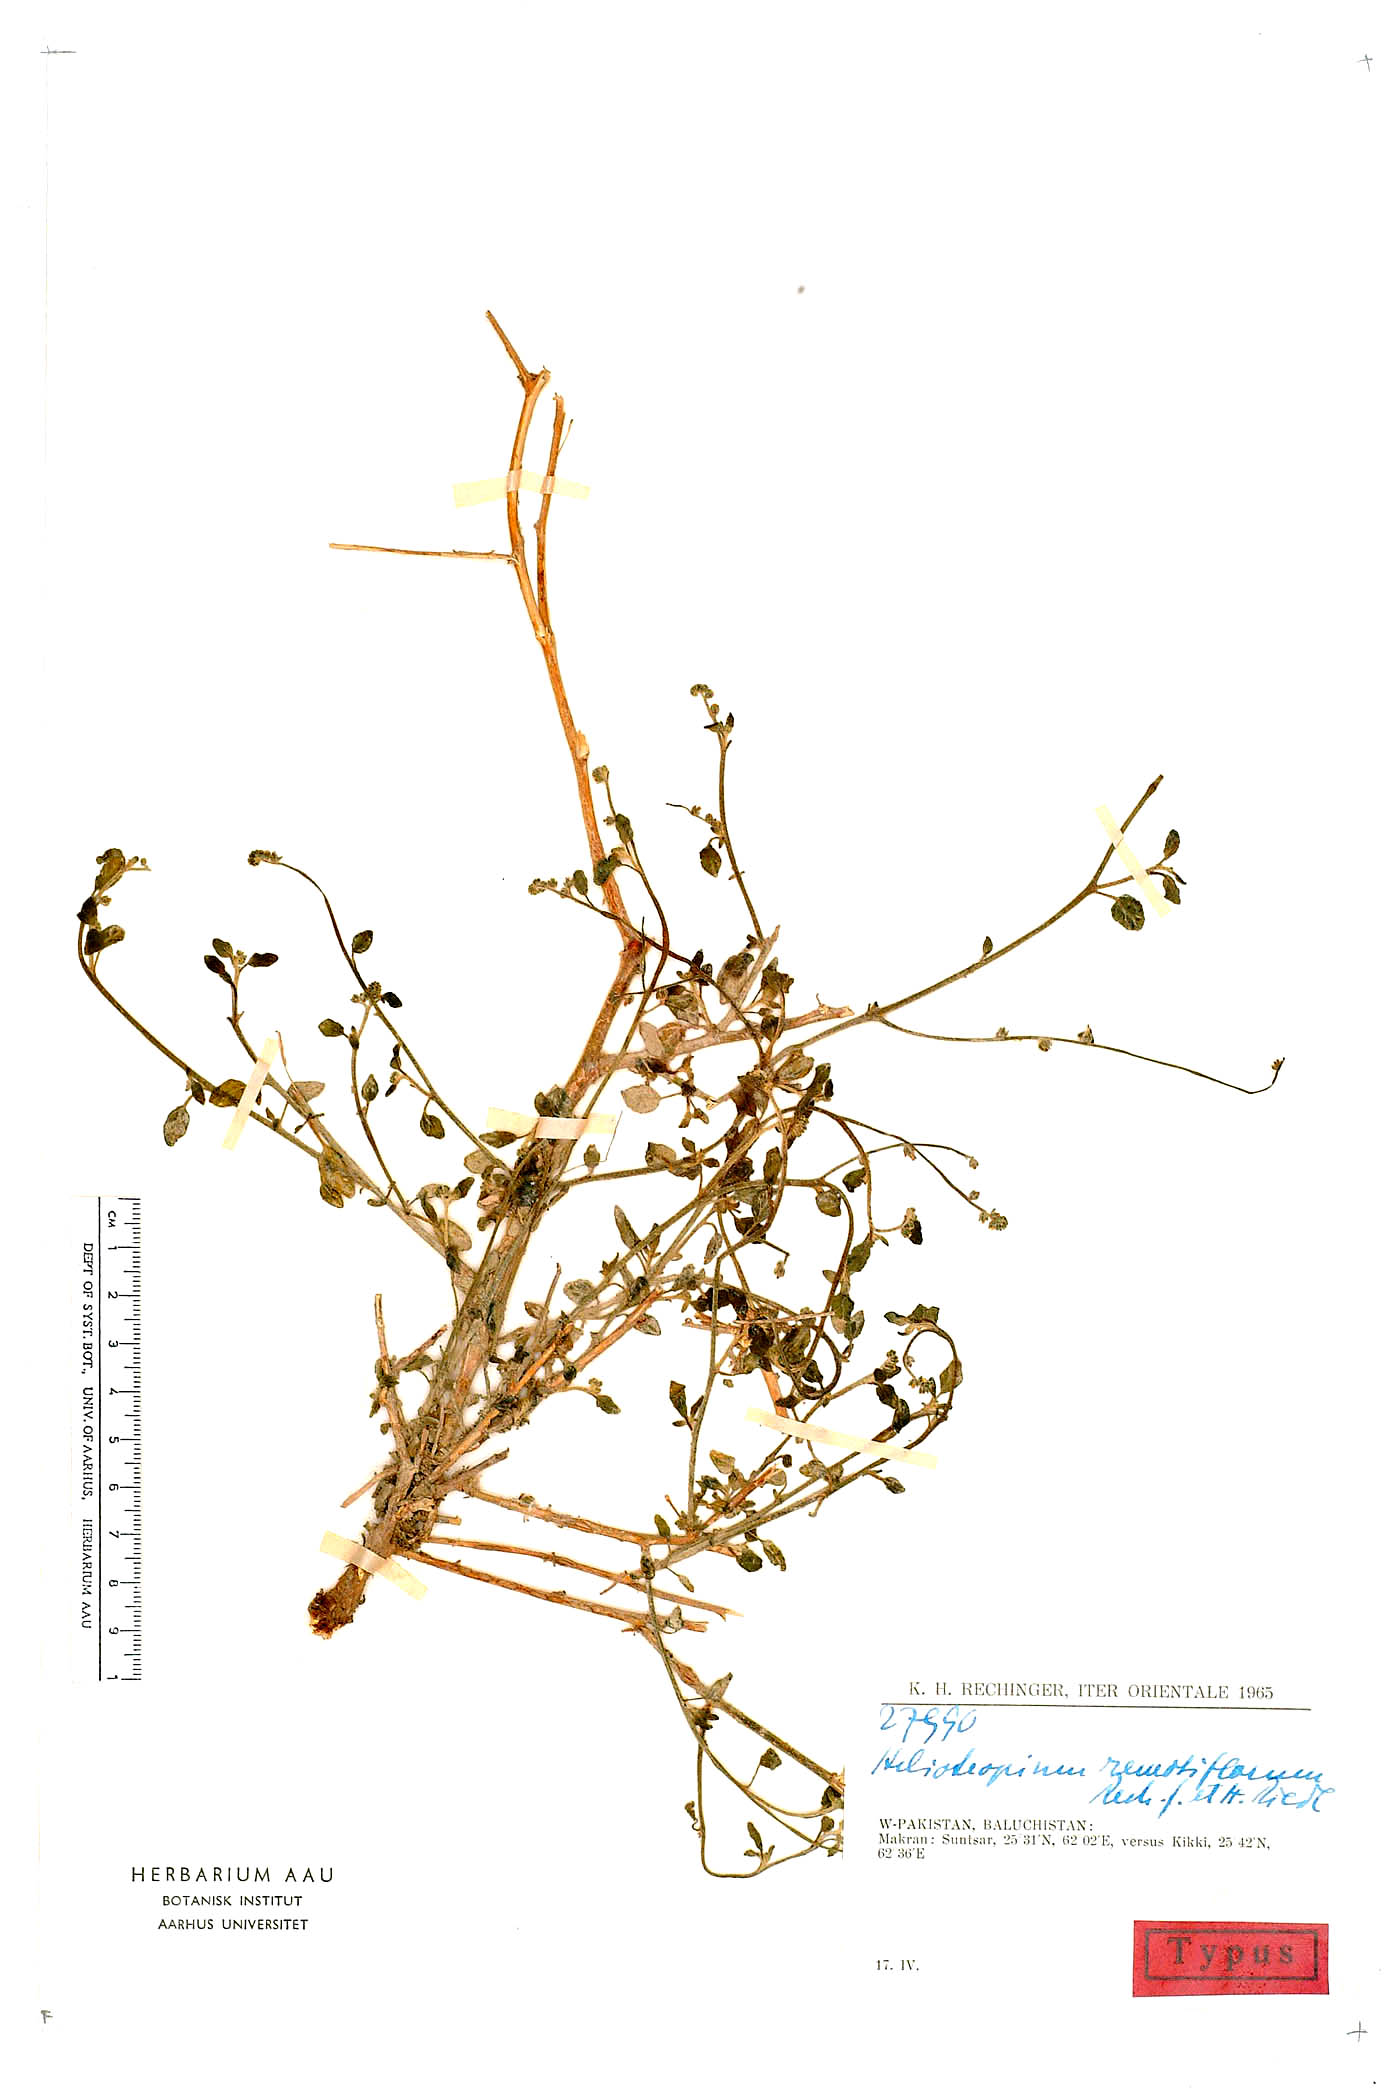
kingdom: Plantae
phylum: Tracheophyta
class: Magnoliopsida
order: Boraginales
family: Heliotropiaceae
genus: Heliotropium
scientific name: Heliotropium remotiflorum
